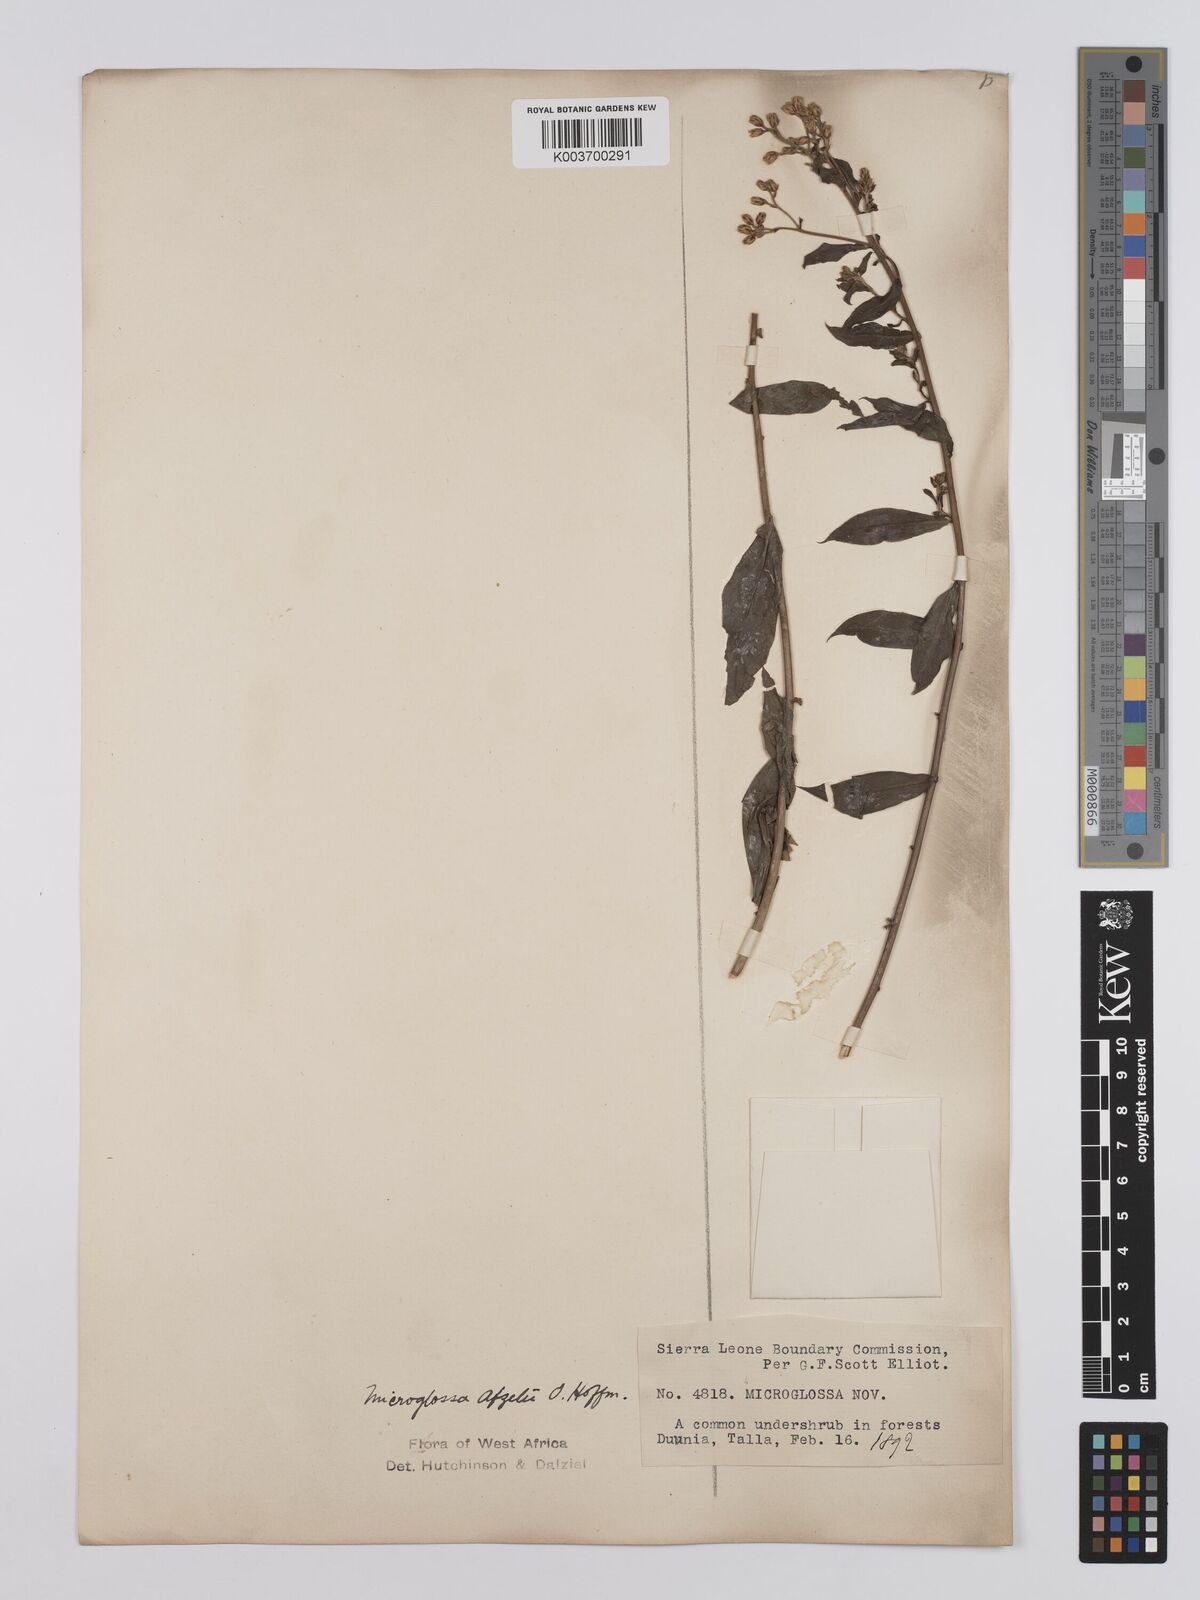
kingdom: Plantae
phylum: Tracheophyta
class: Magnoliopsida
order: Asterales
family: Asteraceae
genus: Microglossa
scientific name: Microglossa afzelii
